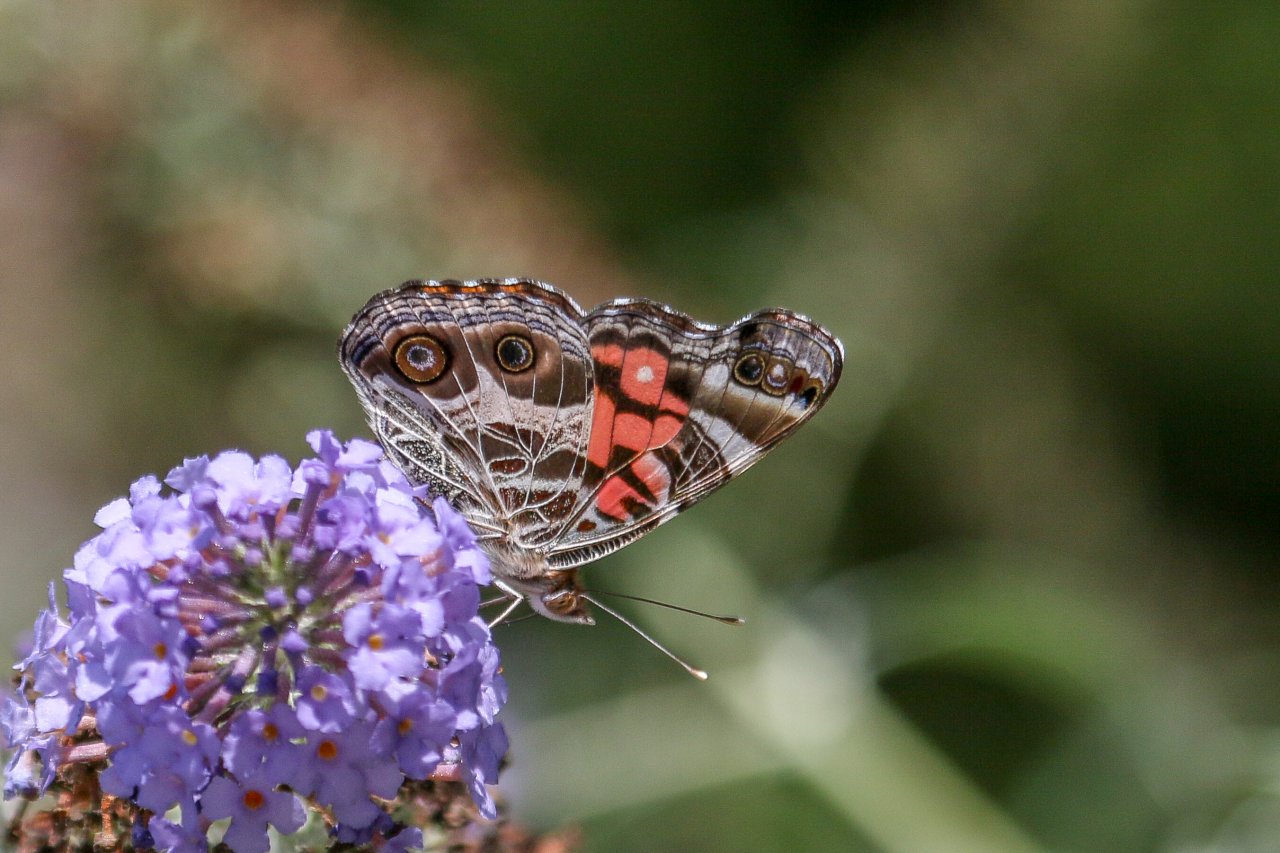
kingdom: Animalia
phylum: Arthropoda
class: Insecta
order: Lepidoptera
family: Nymphalidae
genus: Vanessa
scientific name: Vanessa virginiensis
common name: American Lady
